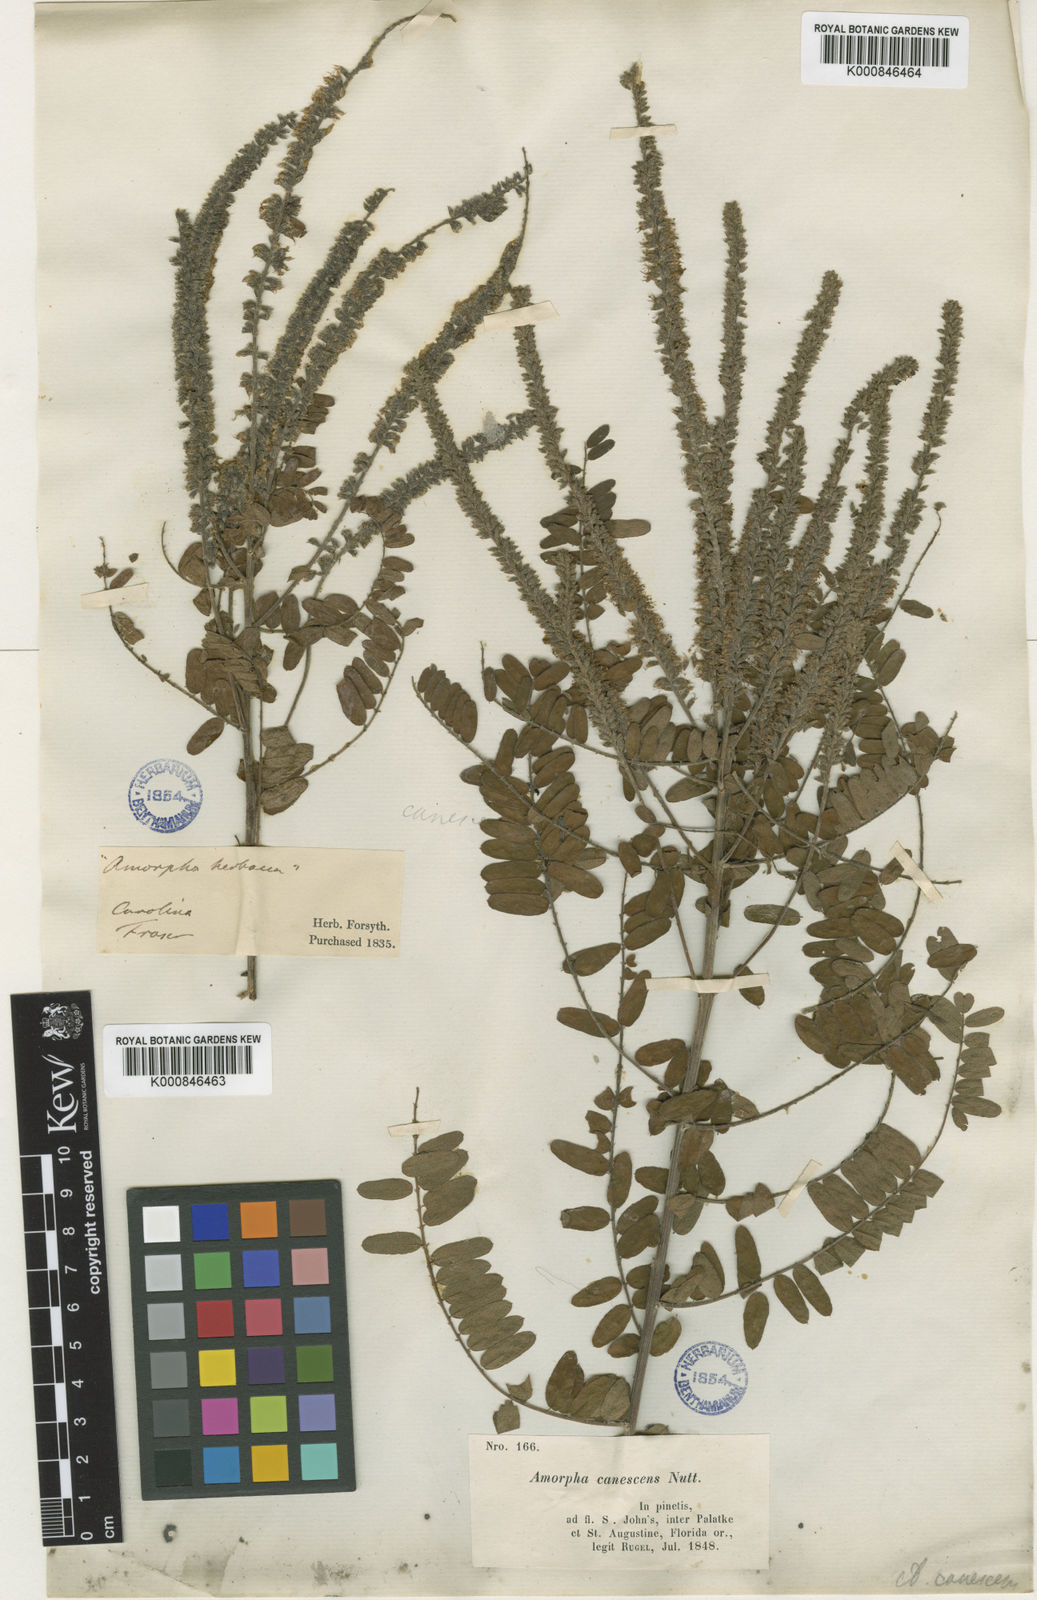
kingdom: Plantae
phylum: Tracheophyta
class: Magnoliopsida
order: Fabales
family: Fabaceae
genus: Amorpha
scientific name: Amorpha canescens
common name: Leadplant
